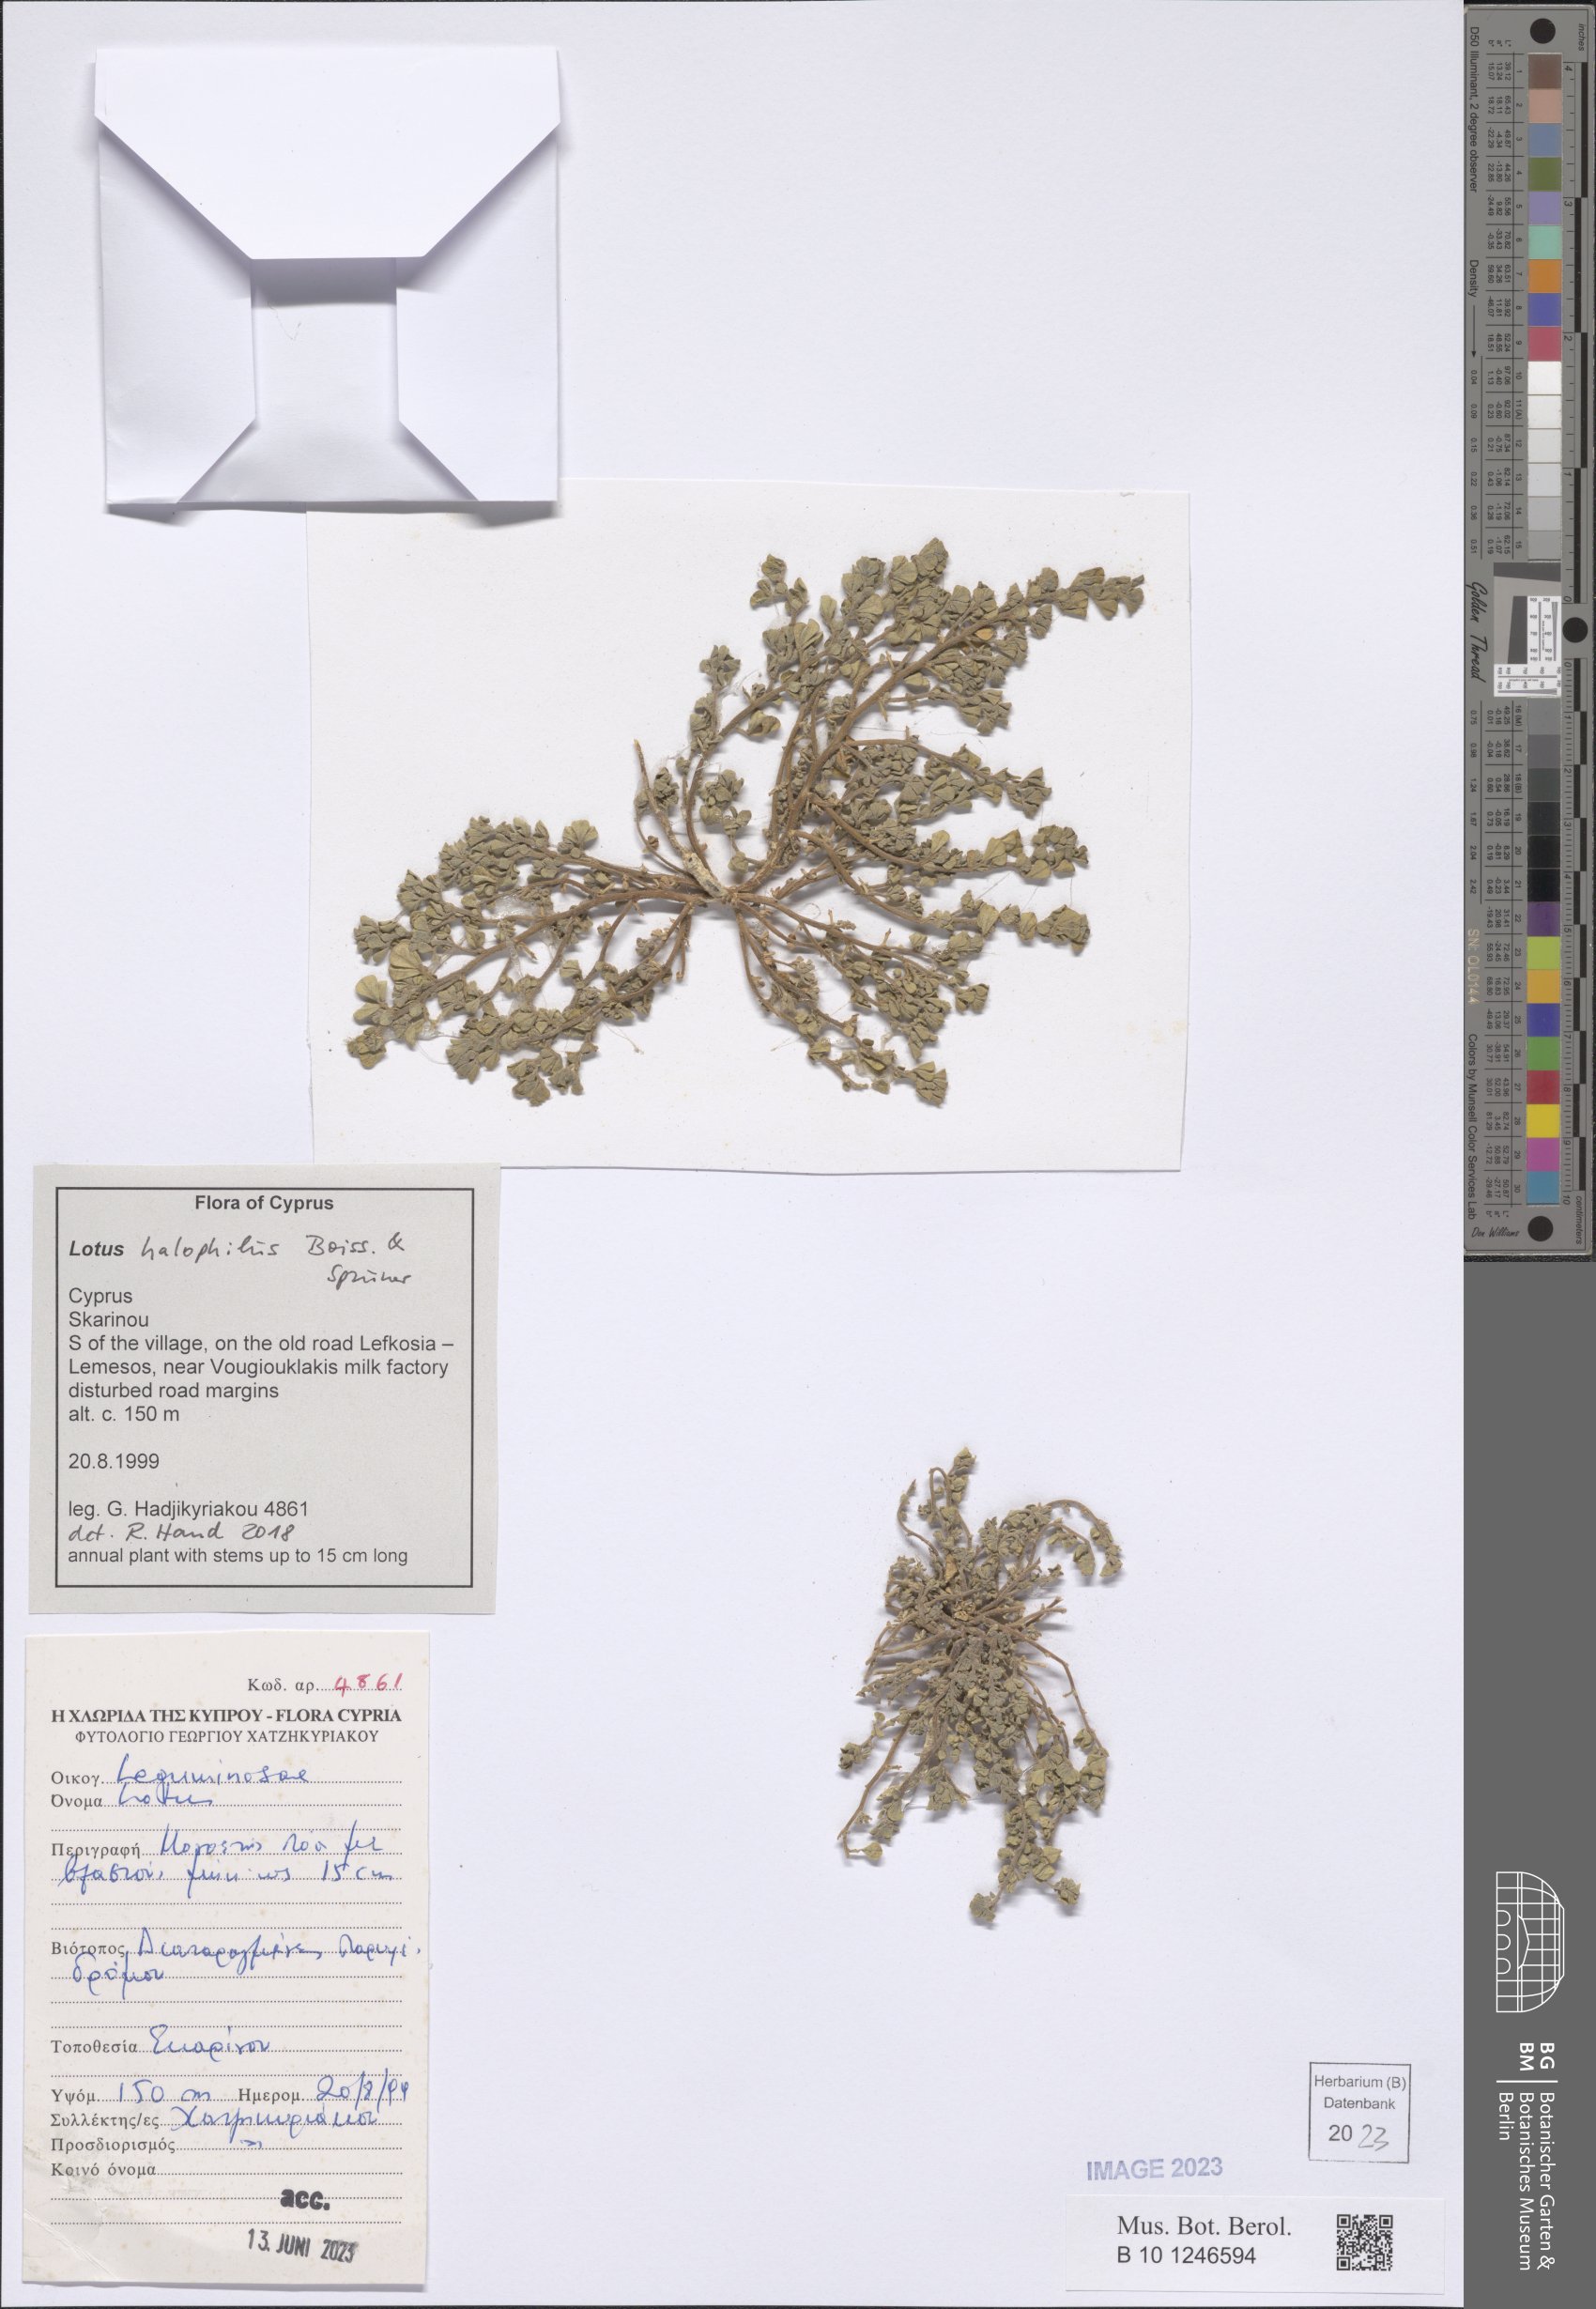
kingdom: Plantae
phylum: Tracheophyta
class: Magnoliopsida
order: Fabales
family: Fabaceae
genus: Lotus
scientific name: Lotus halophilus
